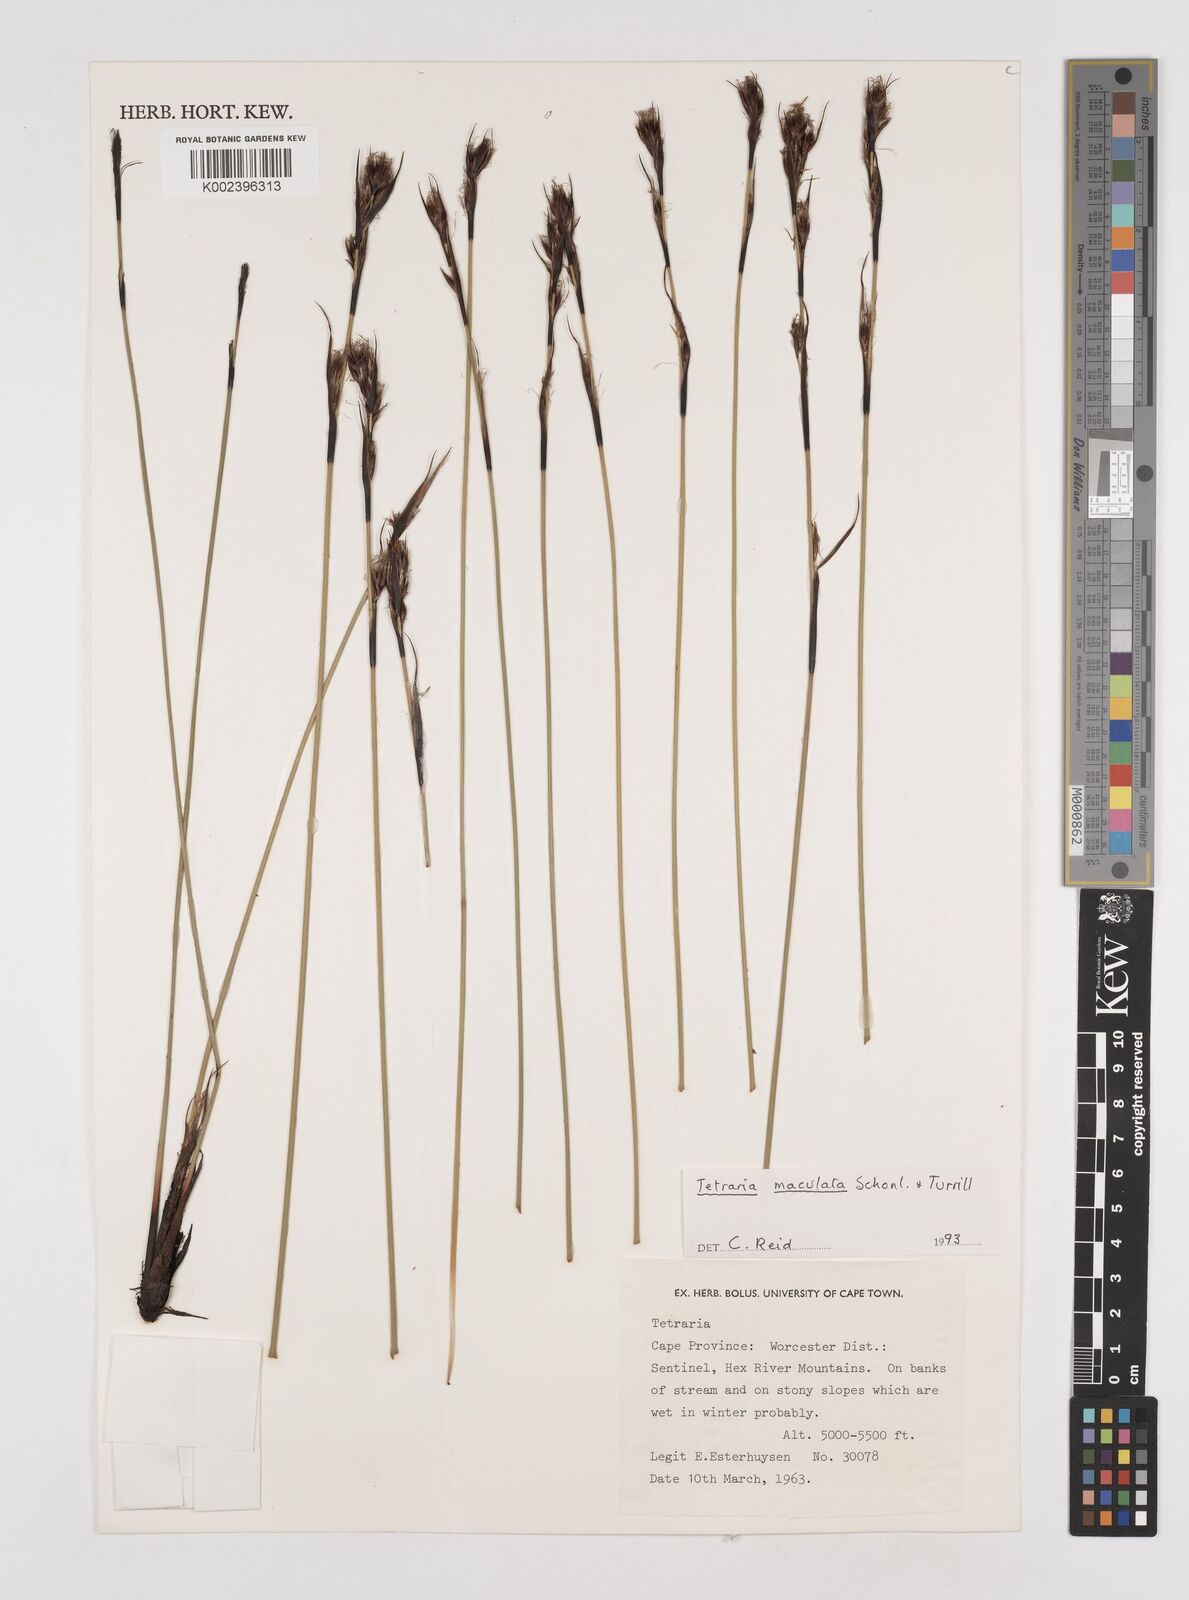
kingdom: Plantae
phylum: Tracheophyta
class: Liliopsida
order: Poales
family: Cyperaceae
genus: Tetraria
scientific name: Tetraria maculata
